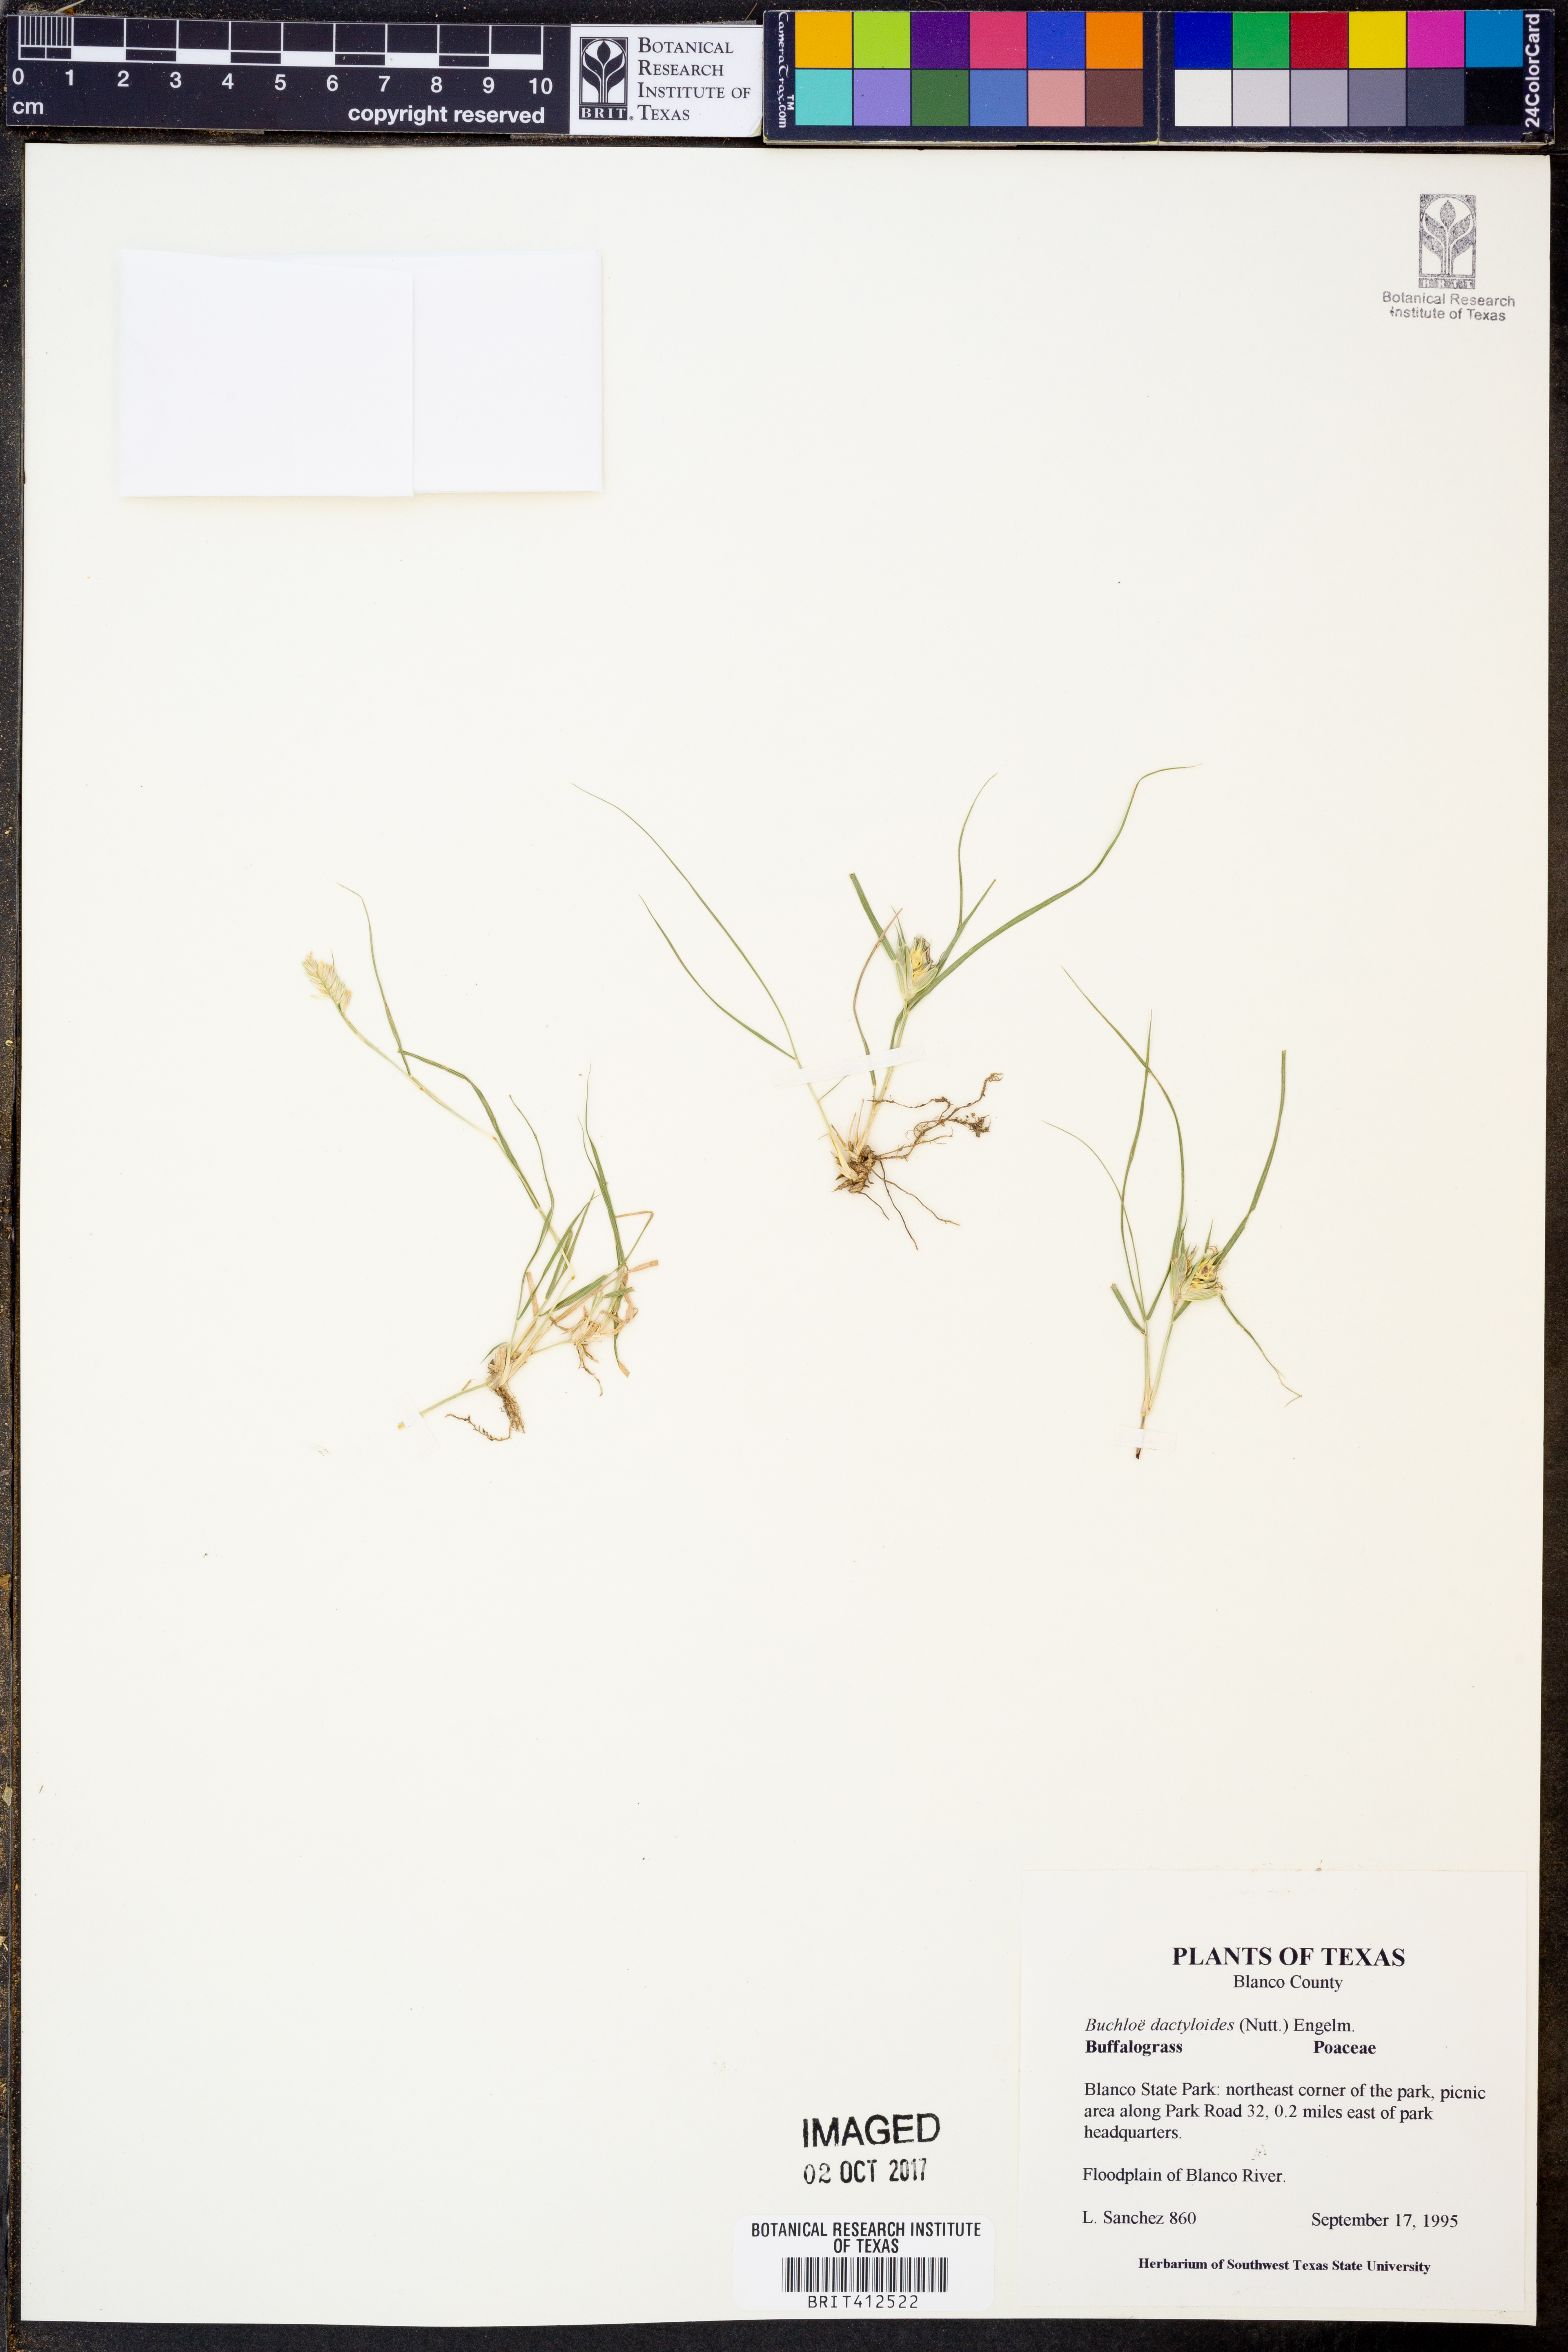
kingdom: Plantae
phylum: Tracheophyta
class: Liliopsida
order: Poales
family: Poaceae
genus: Bouteloua
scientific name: Bouteloua dactyloides
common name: Buffalo grass
